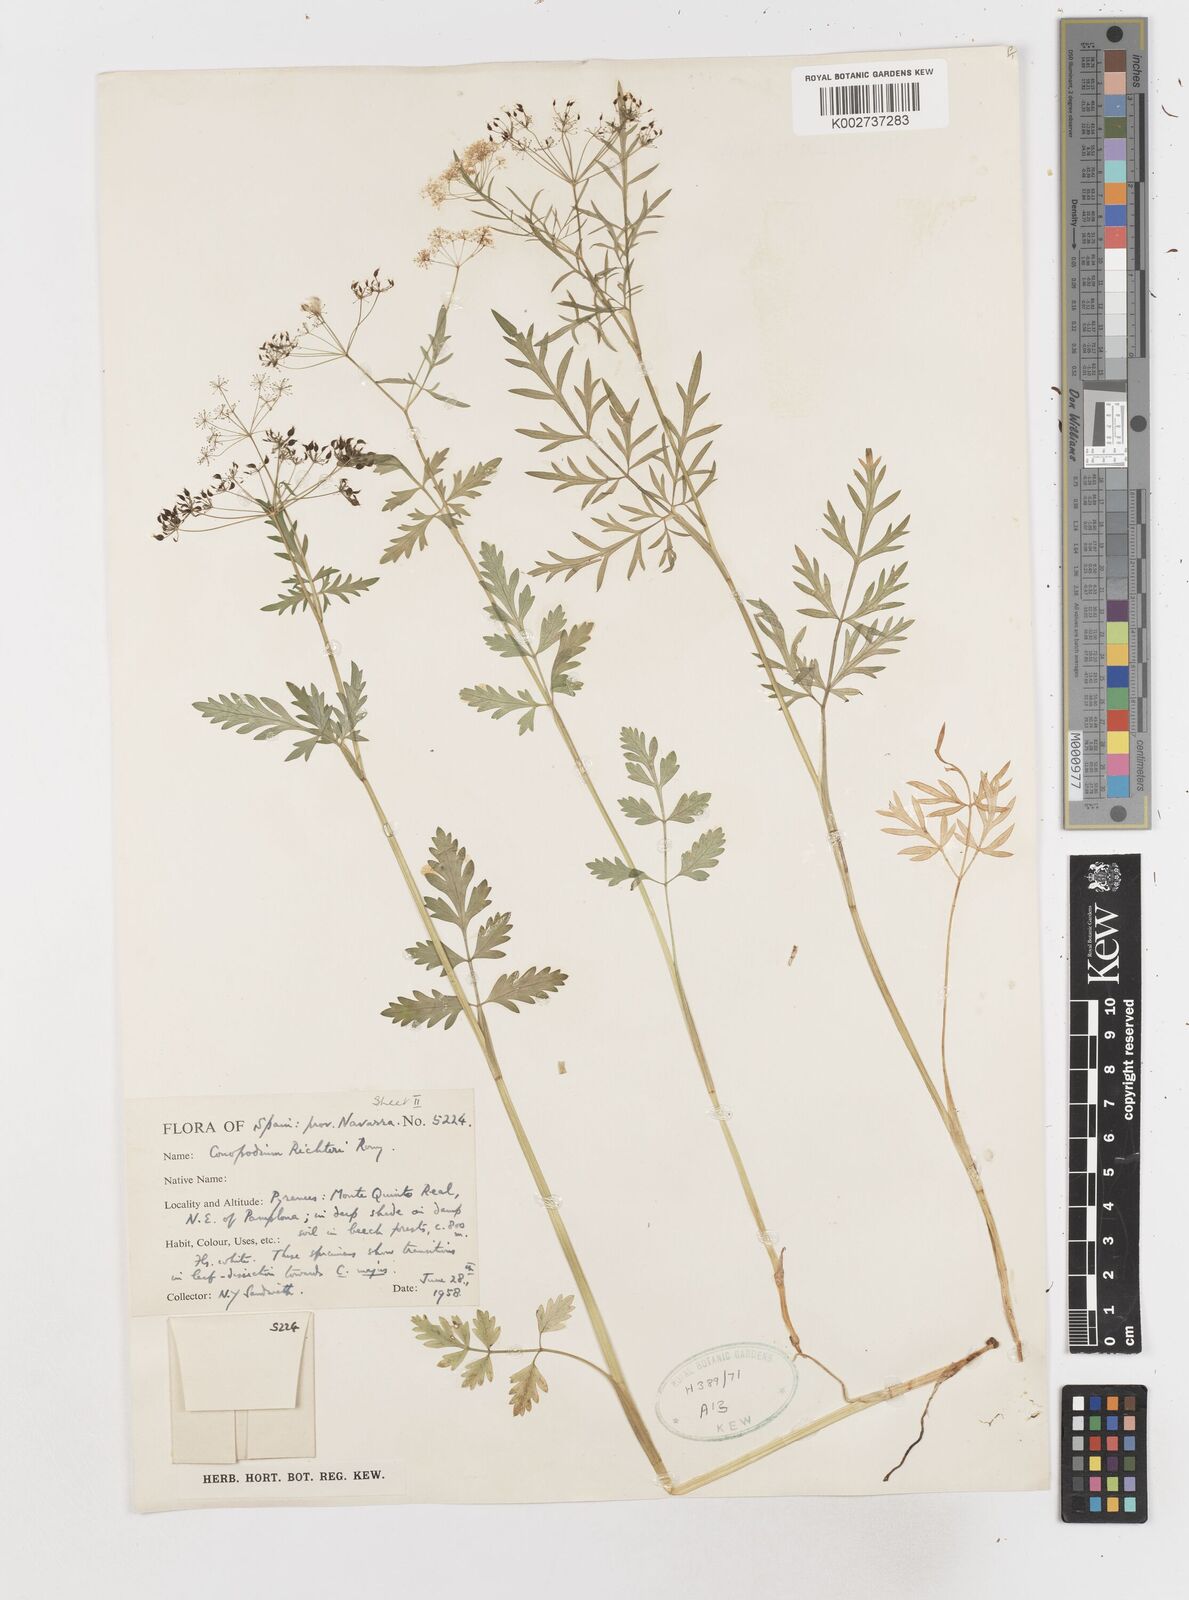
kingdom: Plantae
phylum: Tracheophyta
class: Magnoliopsida
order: Apiales
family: Apiaceae
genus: Conopodium
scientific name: Conopodium pyrenaeum
